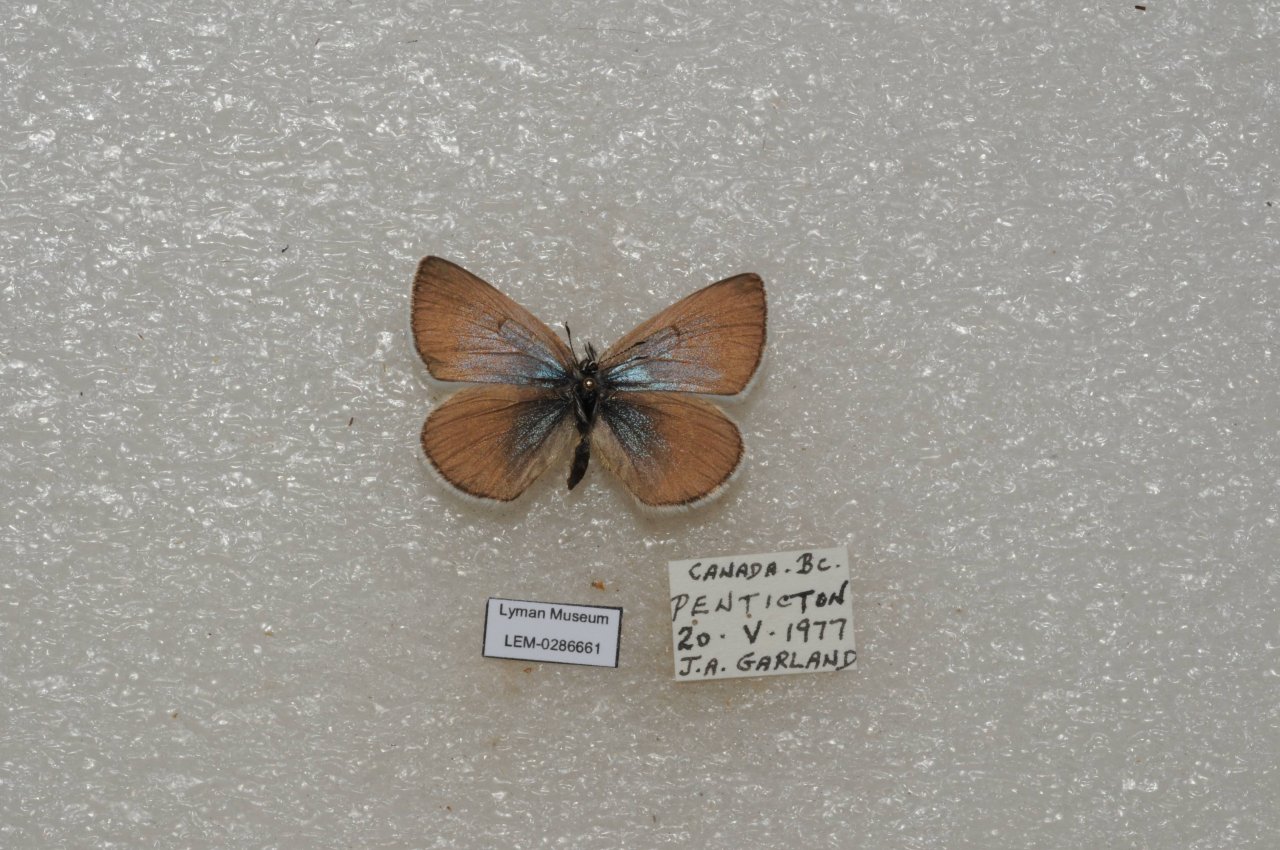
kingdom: Animalia
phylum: Arthropoda
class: Insecta
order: Lepidoptera
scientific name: Lepidoptera
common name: Butterflies
